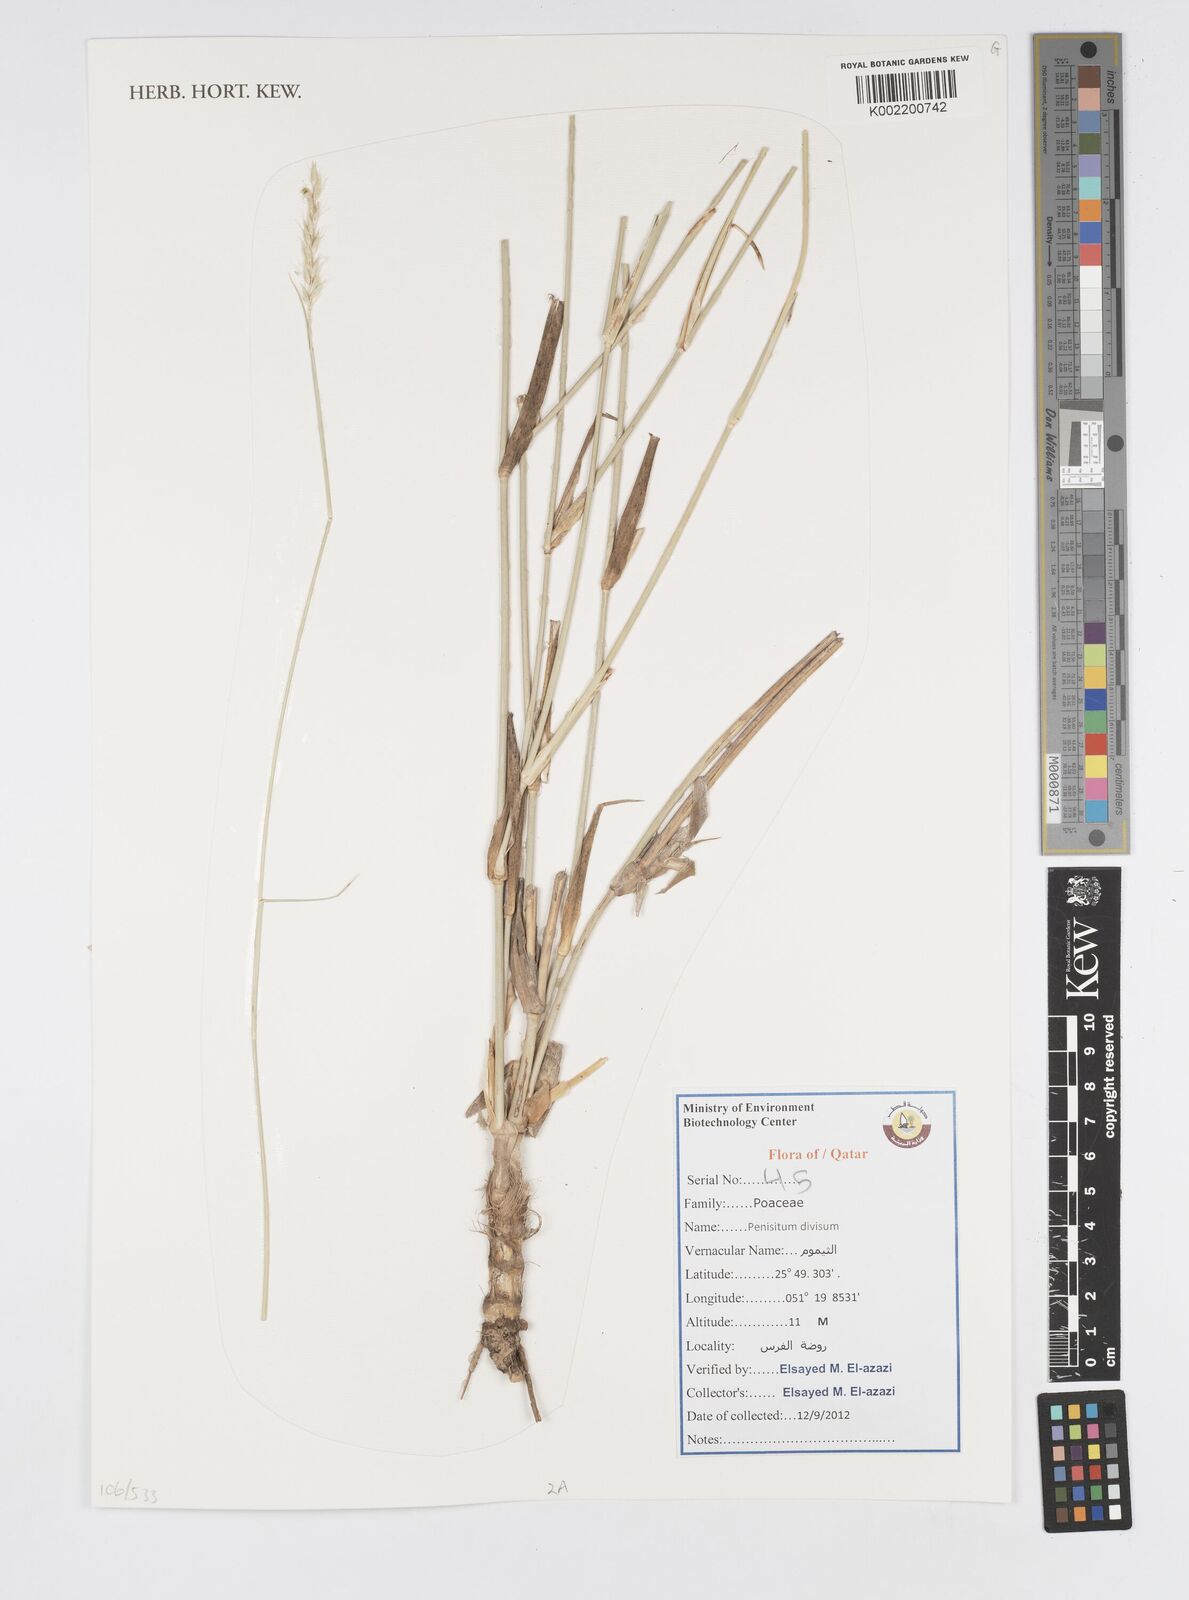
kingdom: Plantae
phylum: Tracheophyta
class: Liliopsida
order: Poales
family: Poaceae
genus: Cenchrus
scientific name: Cenchrus divisus
